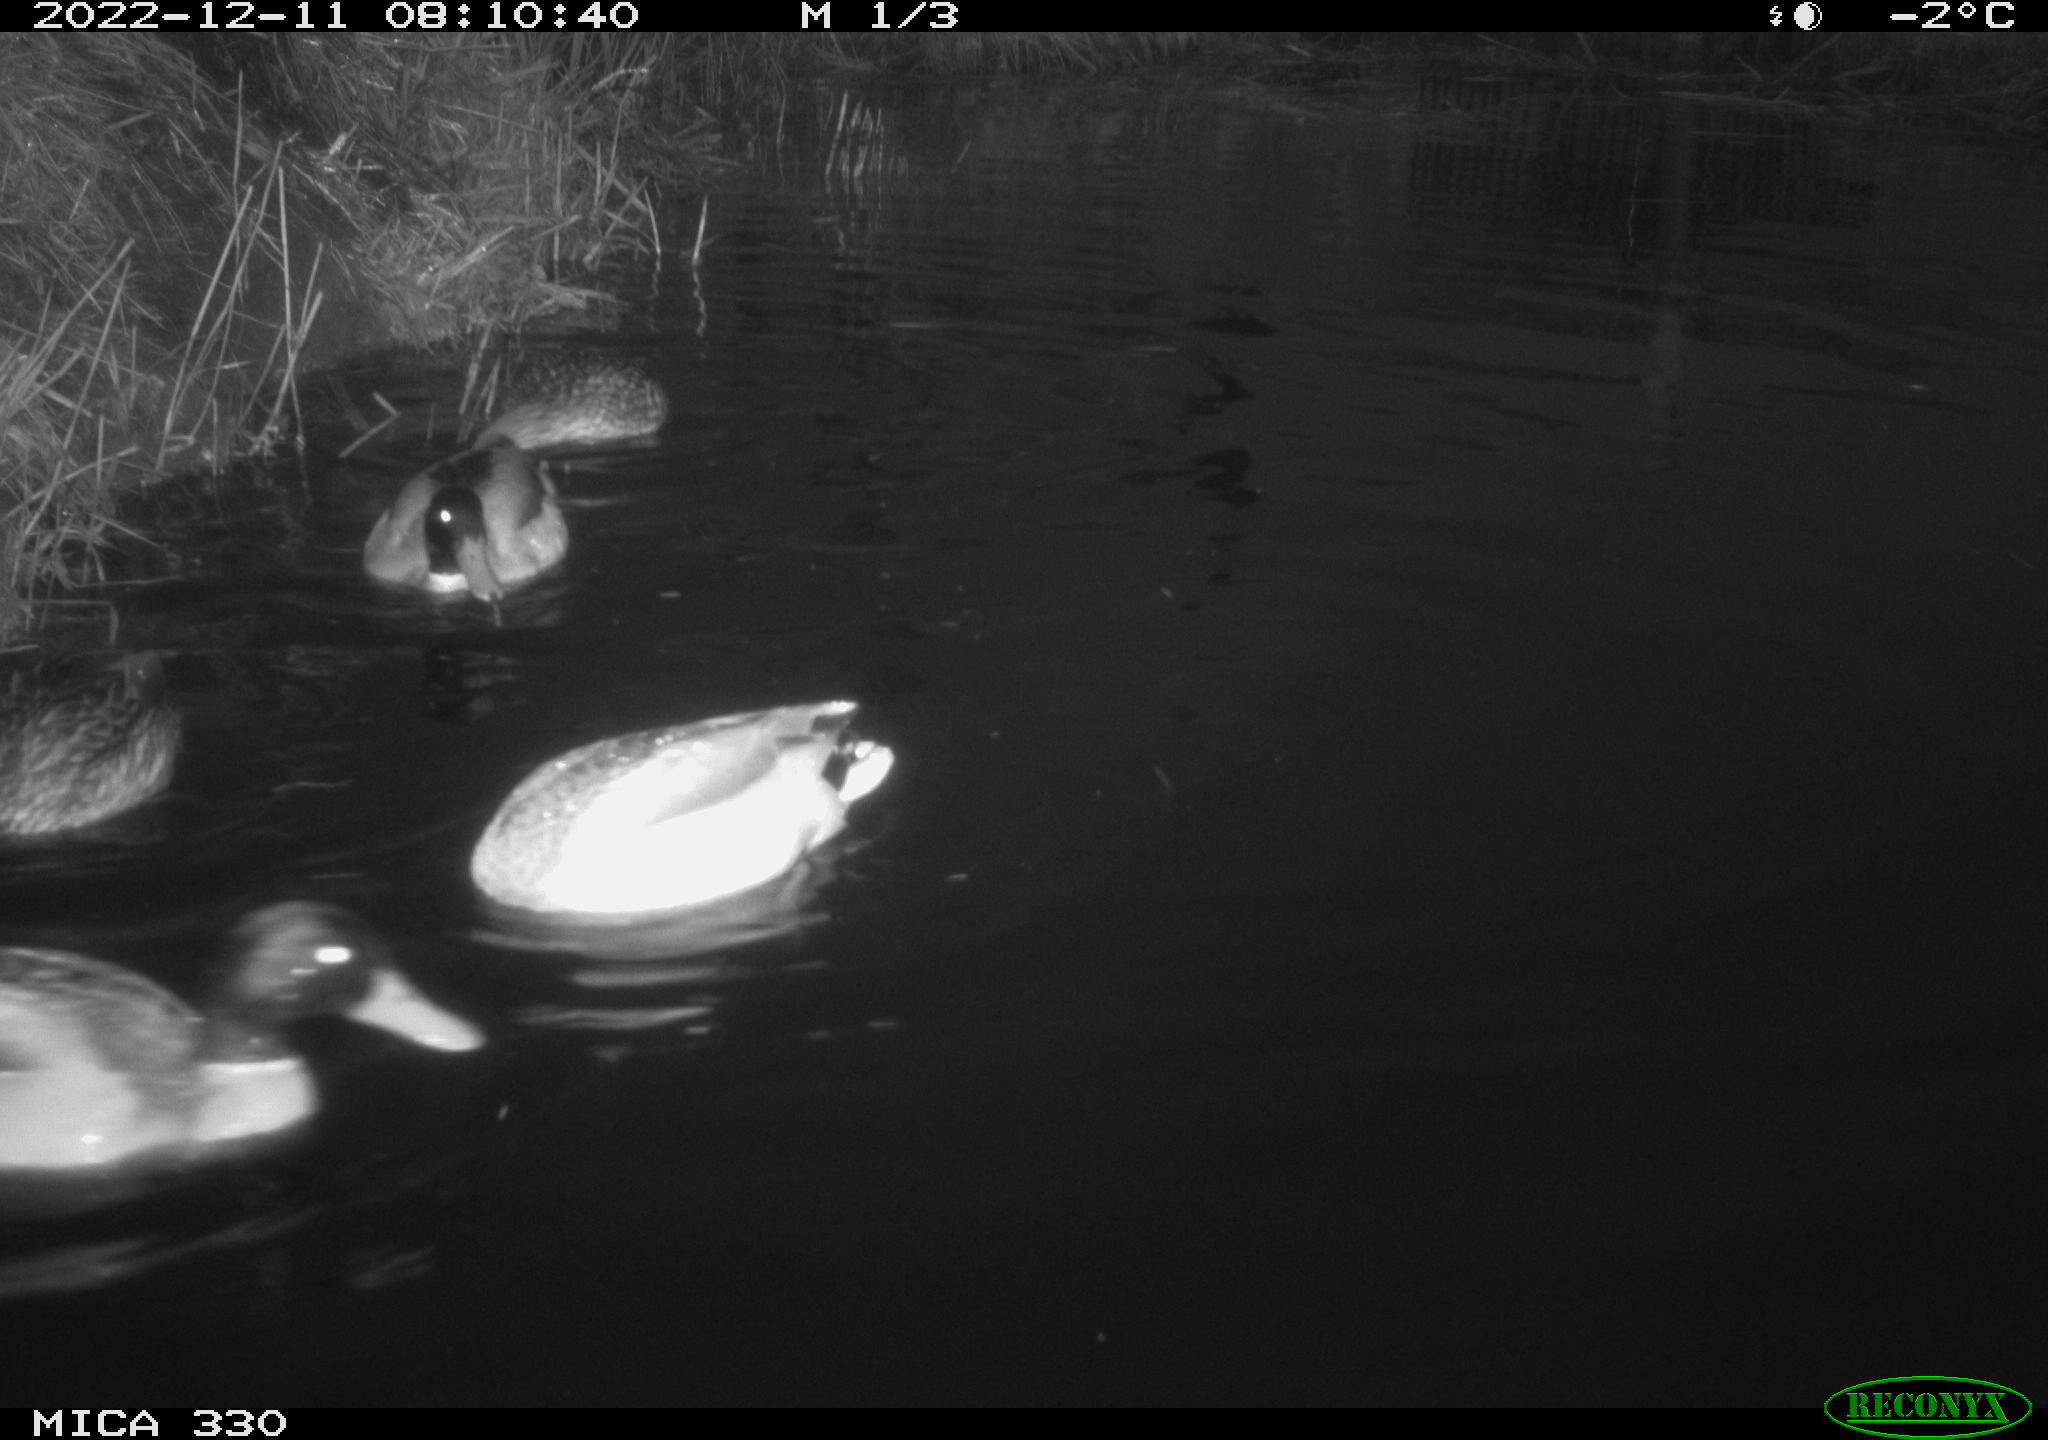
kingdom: Animalia
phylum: Chordata
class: Aves
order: Anseriformes
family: Anatidae
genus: Anas
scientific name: Anas
